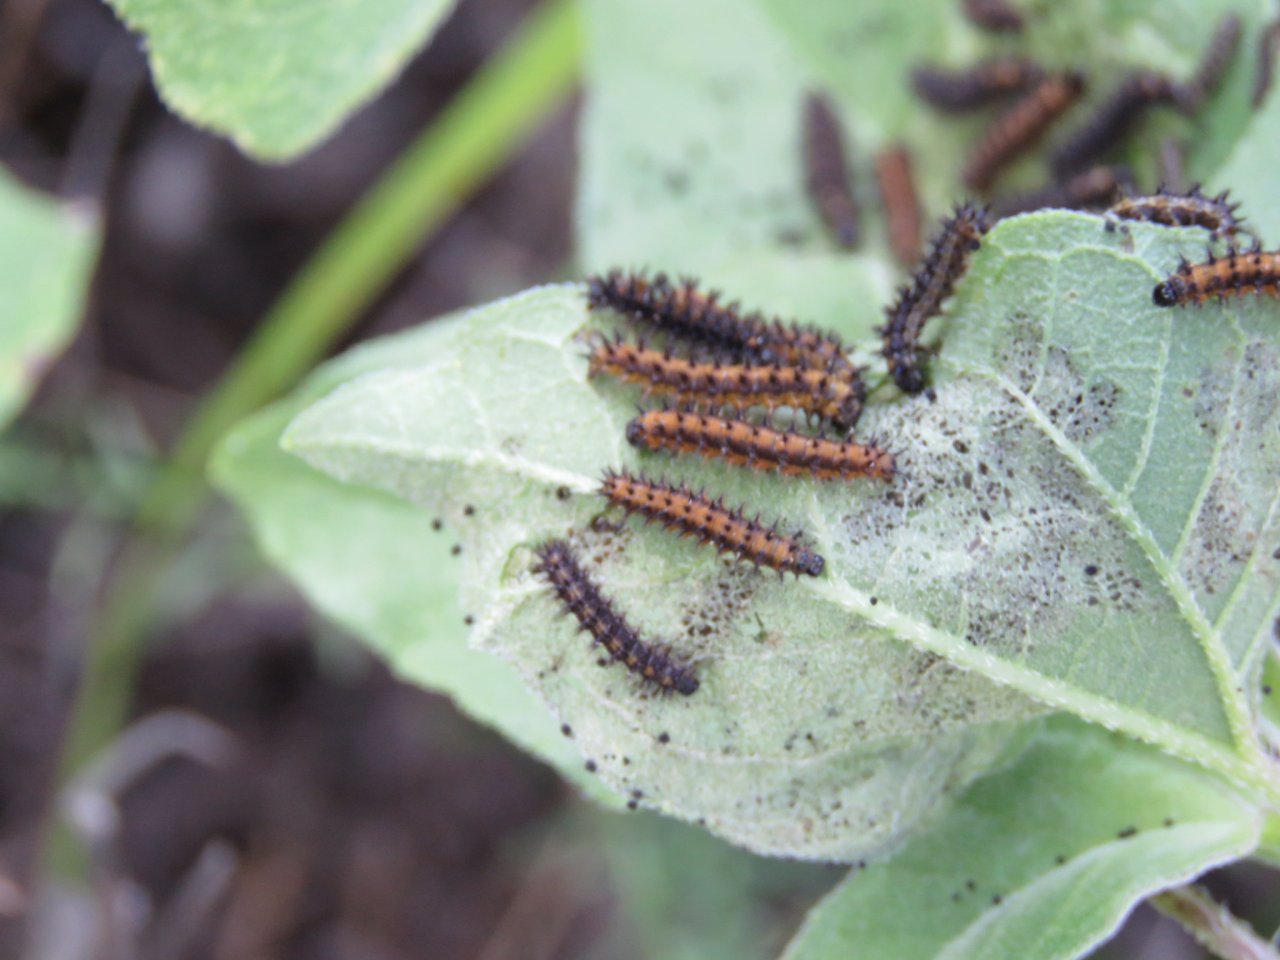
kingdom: Animalia
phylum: Arthropoda
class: Insecta
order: Lepidoptera
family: Nymphalidae
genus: Chlosyne
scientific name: Chlosyne nycteis
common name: Silvery Checkerspot
